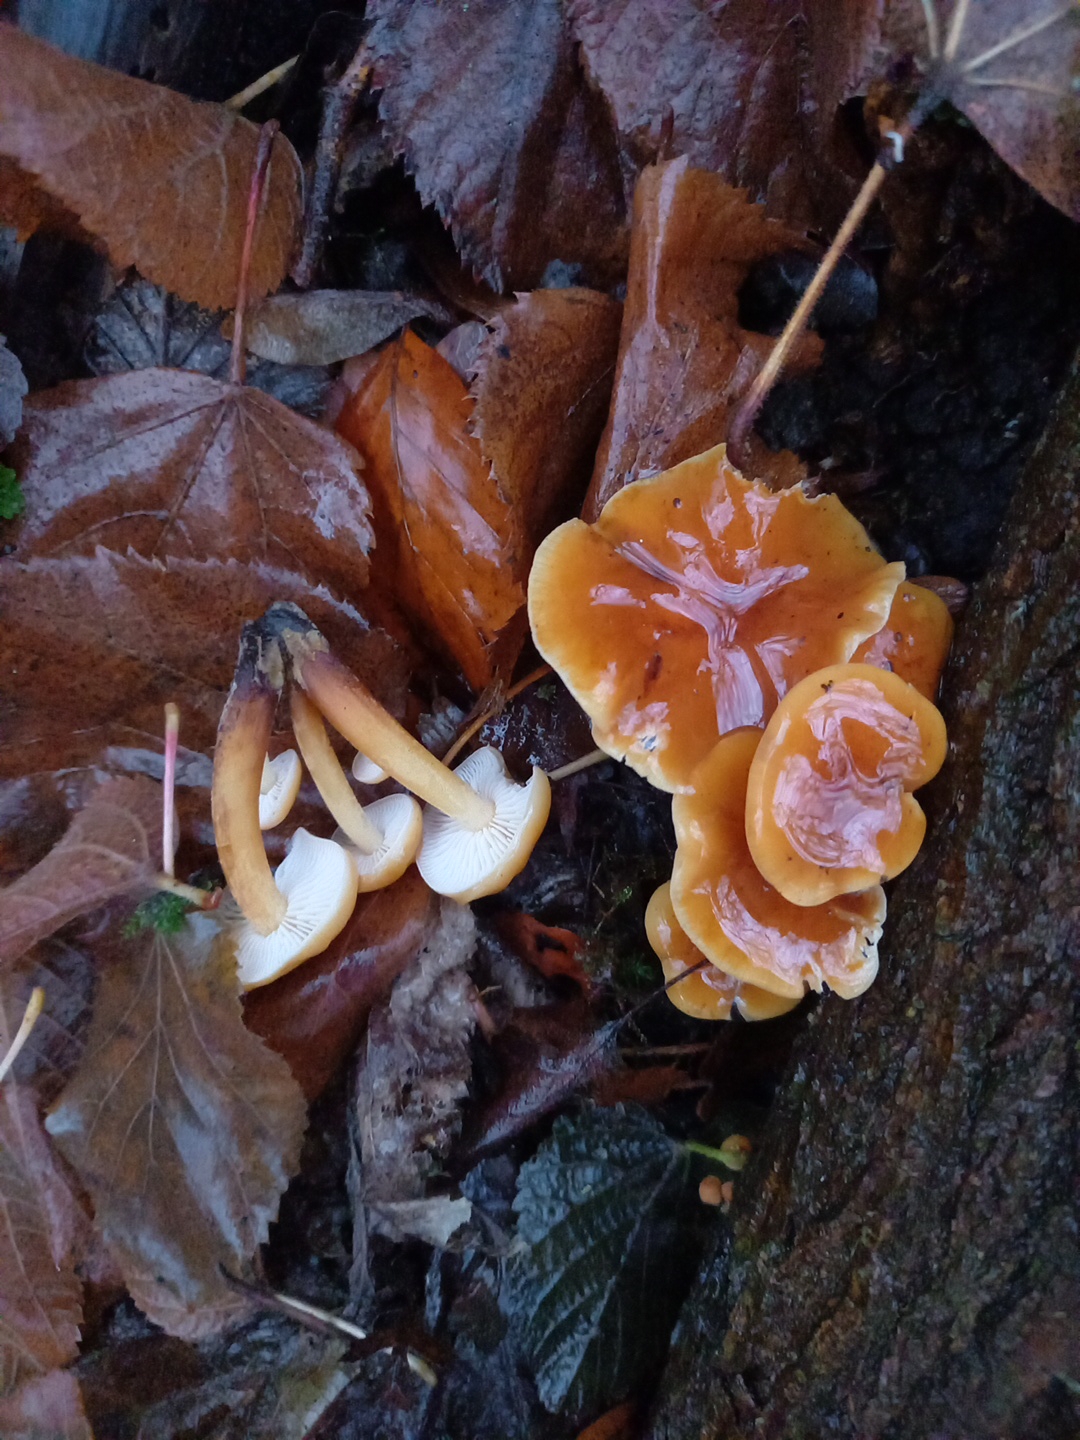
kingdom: Fungi
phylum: Basidiomycota
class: Agaricomycetes
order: Agaricales
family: Physalacriaceae
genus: Flammulina
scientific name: Flammulina velutipes
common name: gul fløjlsfod
